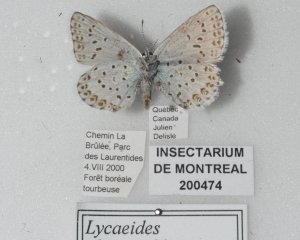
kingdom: Animalia
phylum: Arthropoda
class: Insecta
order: Lepidoptera
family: Lycaenidae
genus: Lycaeides
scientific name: Lycaeides idas
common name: Northern Blue
